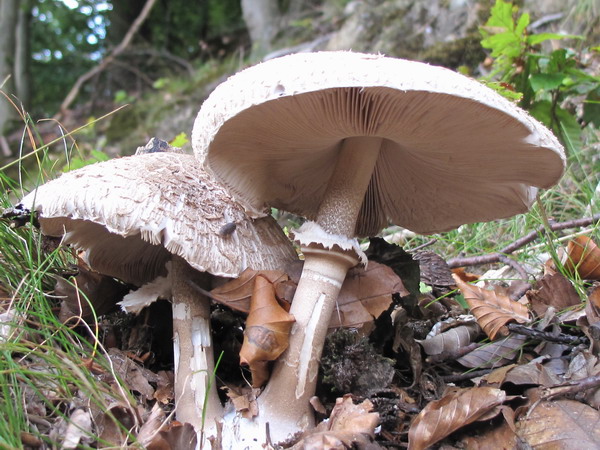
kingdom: Fungi
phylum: Basidiomycota
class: Agaricomycetes
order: Agaricales
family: Agaricaceae
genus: Macrolepiota
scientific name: Macrolepiota fuliginosa
